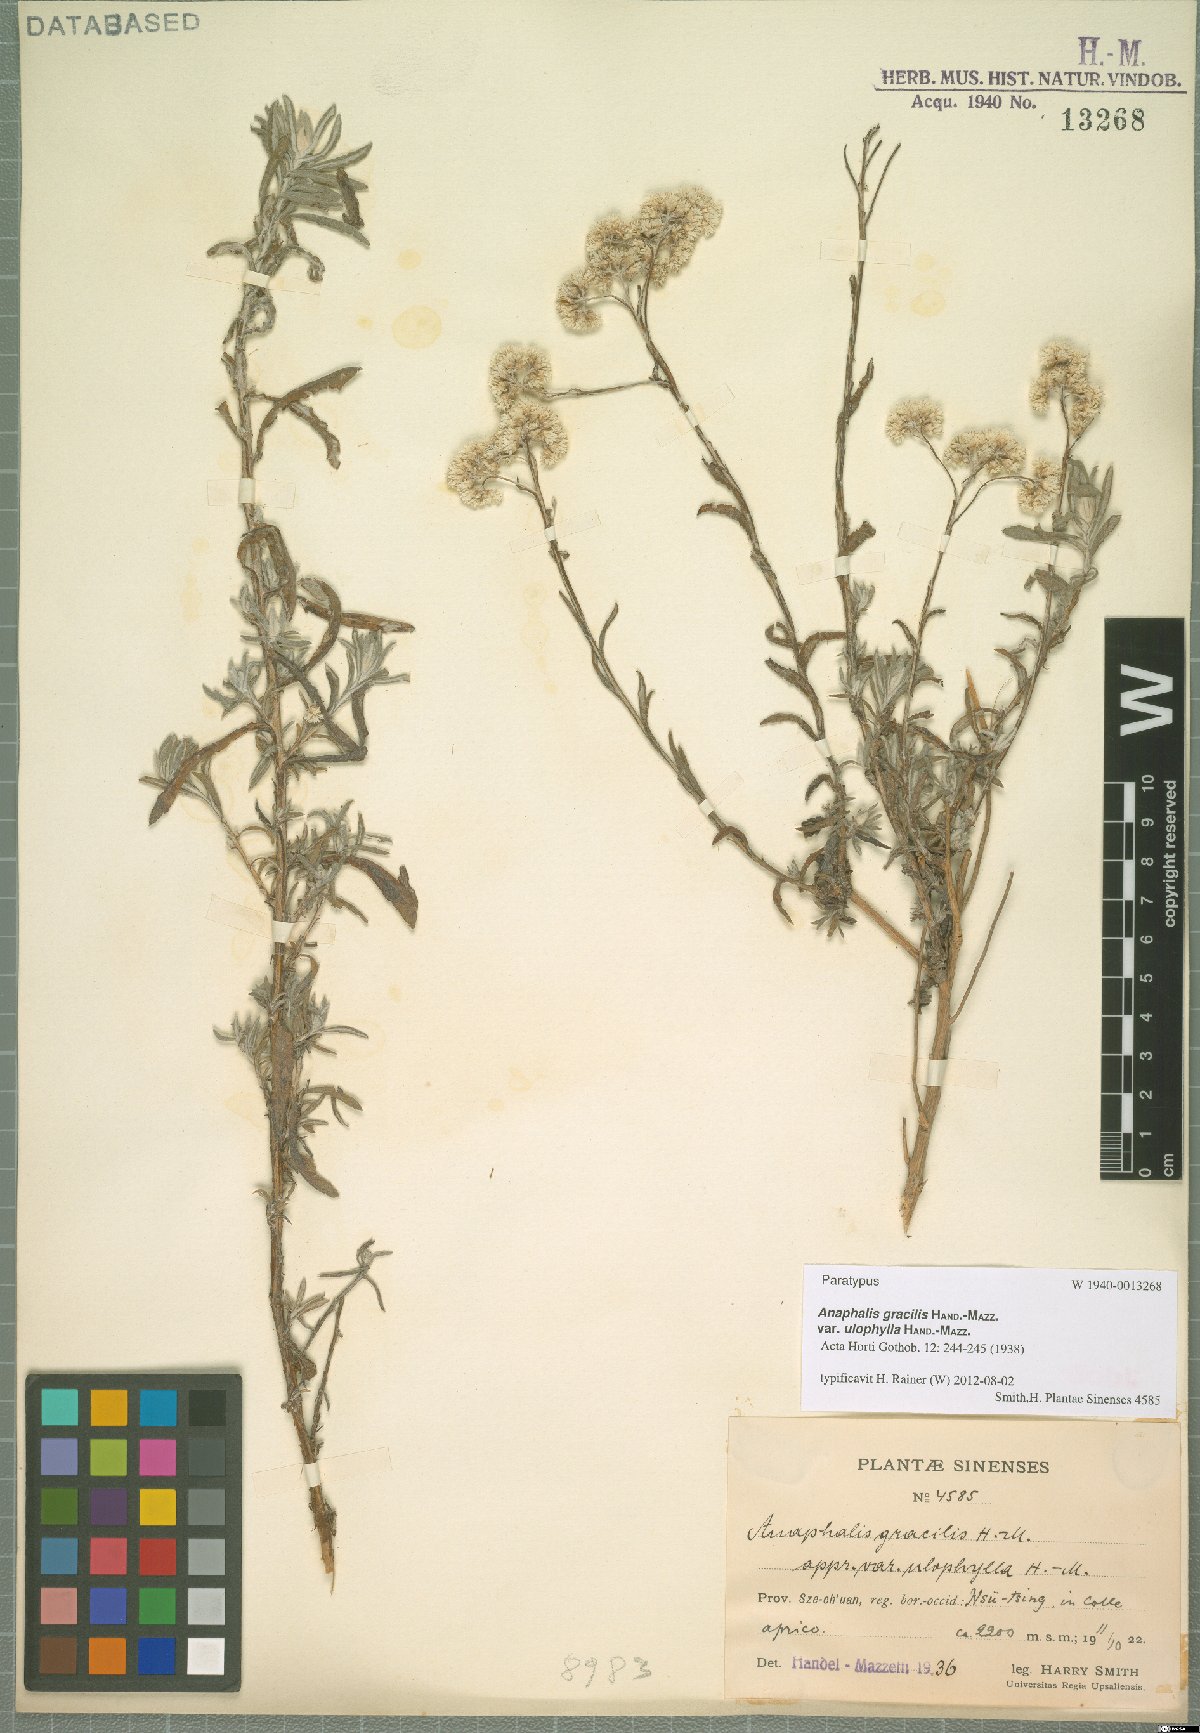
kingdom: Plantae
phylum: Tracheophyta
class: Magnoliopsida
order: Asterales
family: Asteraceae
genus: Anaphalis
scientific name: Anaphalis gracilis
